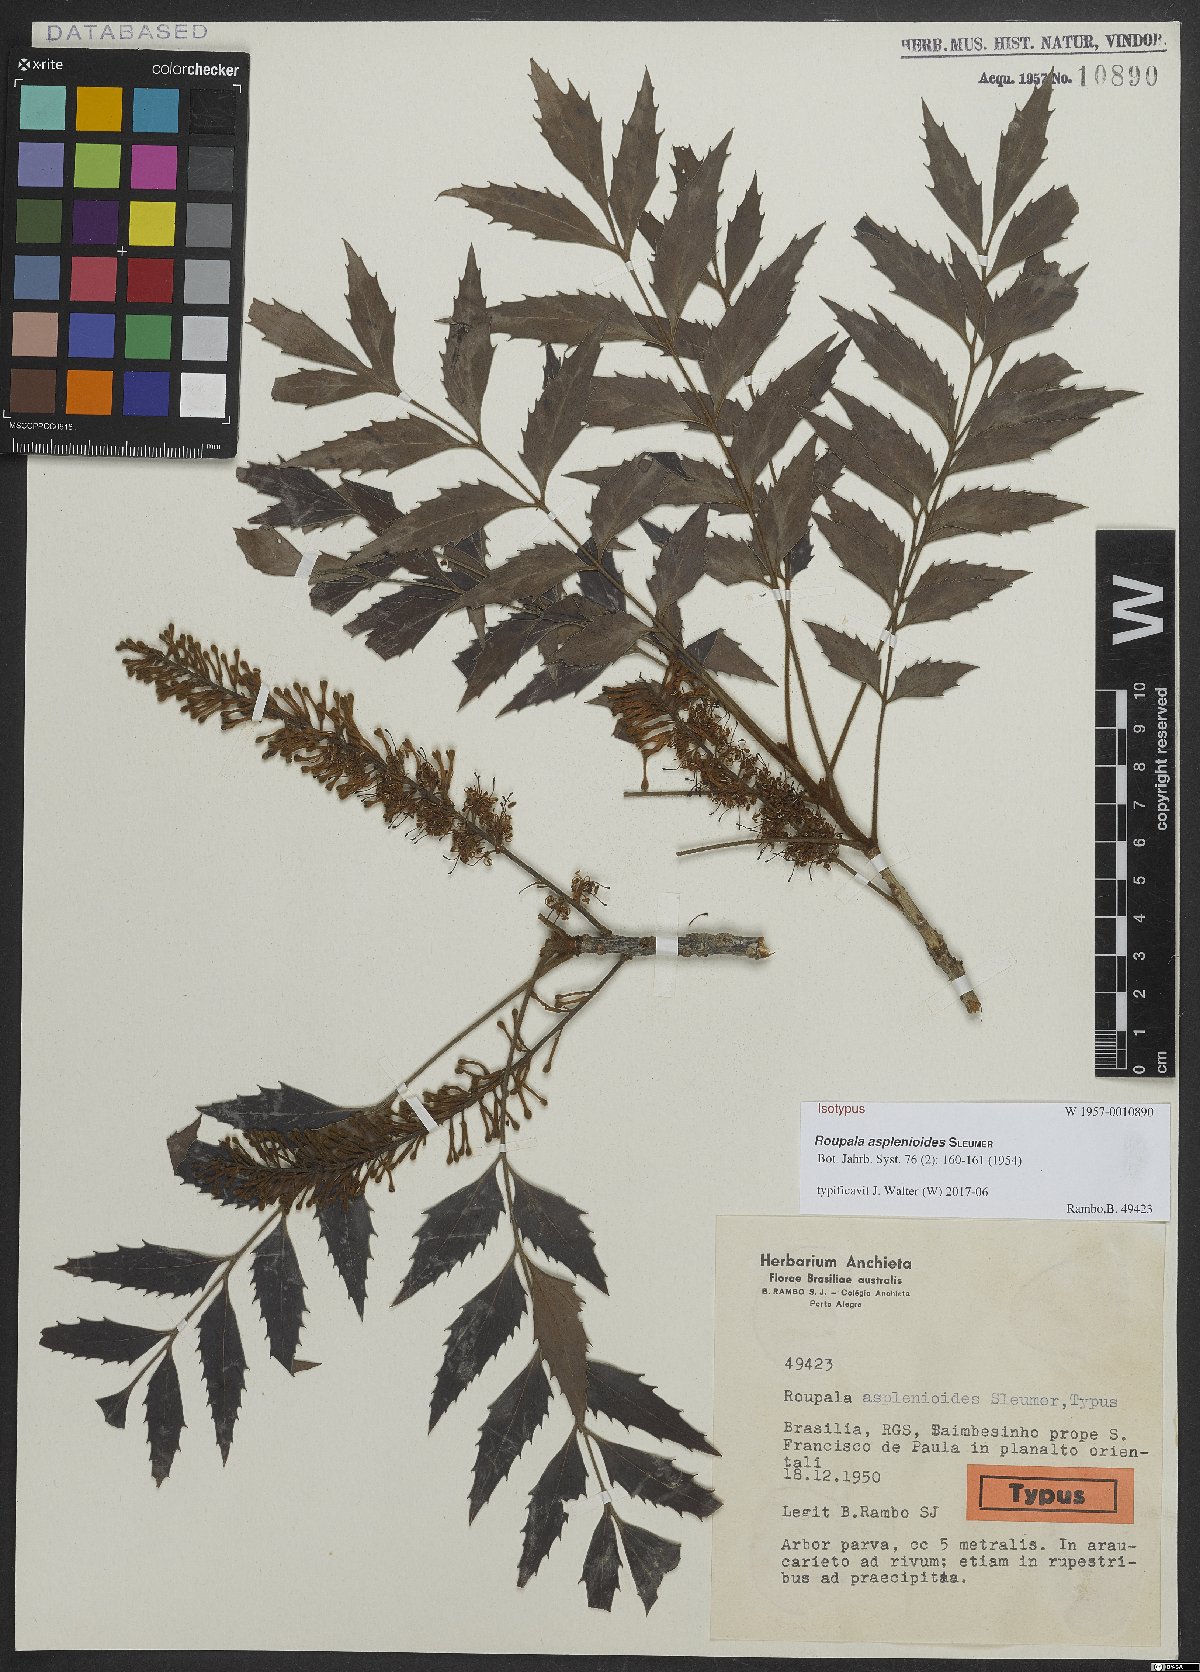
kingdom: Plantae
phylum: Tracheophyta
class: Magnoliopsida
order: Proteales
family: Proteaceae
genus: Roupala
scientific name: Roupala asplenioides
